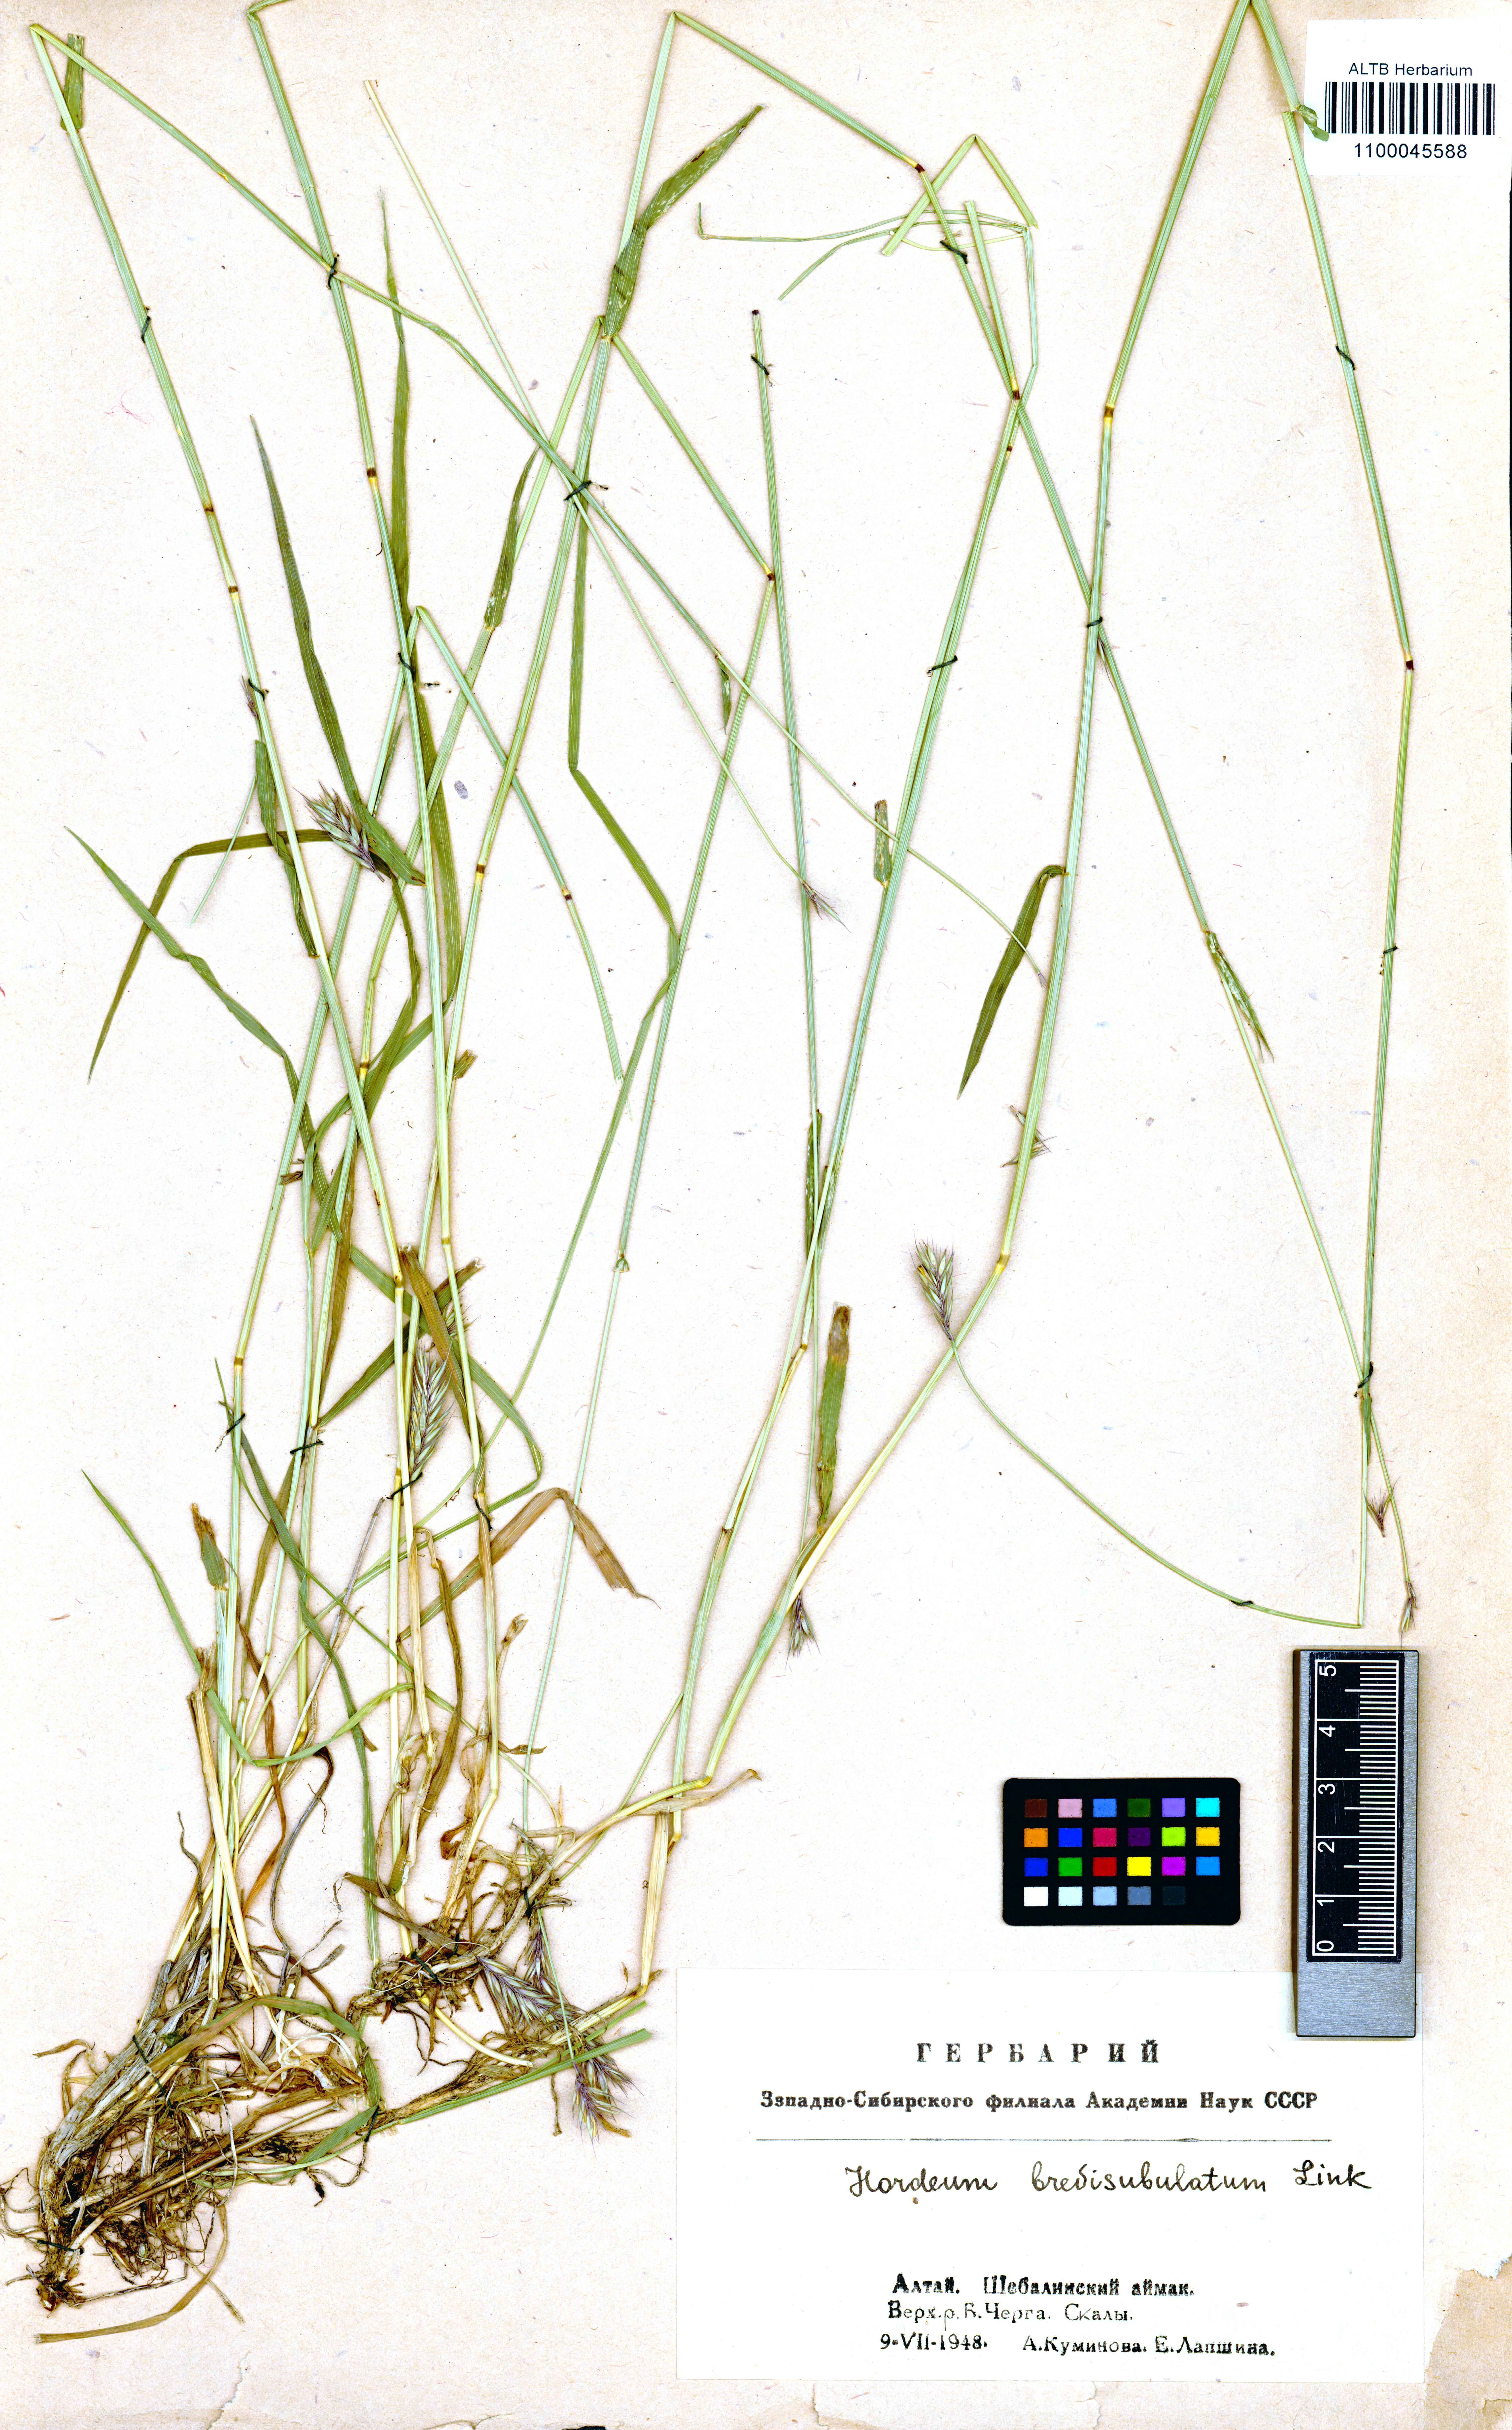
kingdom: Plantae
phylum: Tracheophyta
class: Liliopsida
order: Poales
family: Poaceae
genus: Hordeum
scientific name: Hordeum brevisubulatum
